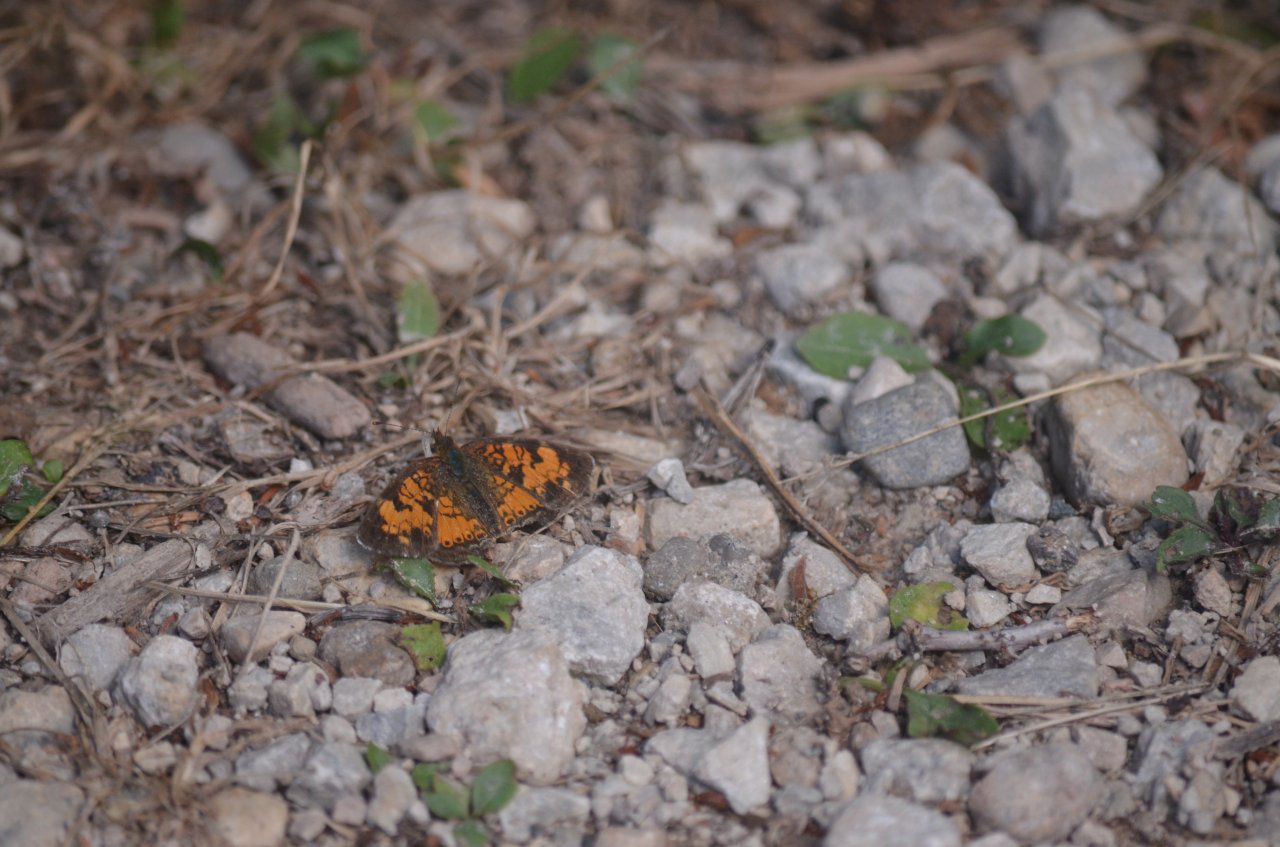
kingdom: Animalia
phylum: Arthropoda
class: Insecta
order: Lepidoptera
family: Nymphalidae
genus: Phyciodes
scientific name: Phyciodes tharos
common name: Northern Crescent
